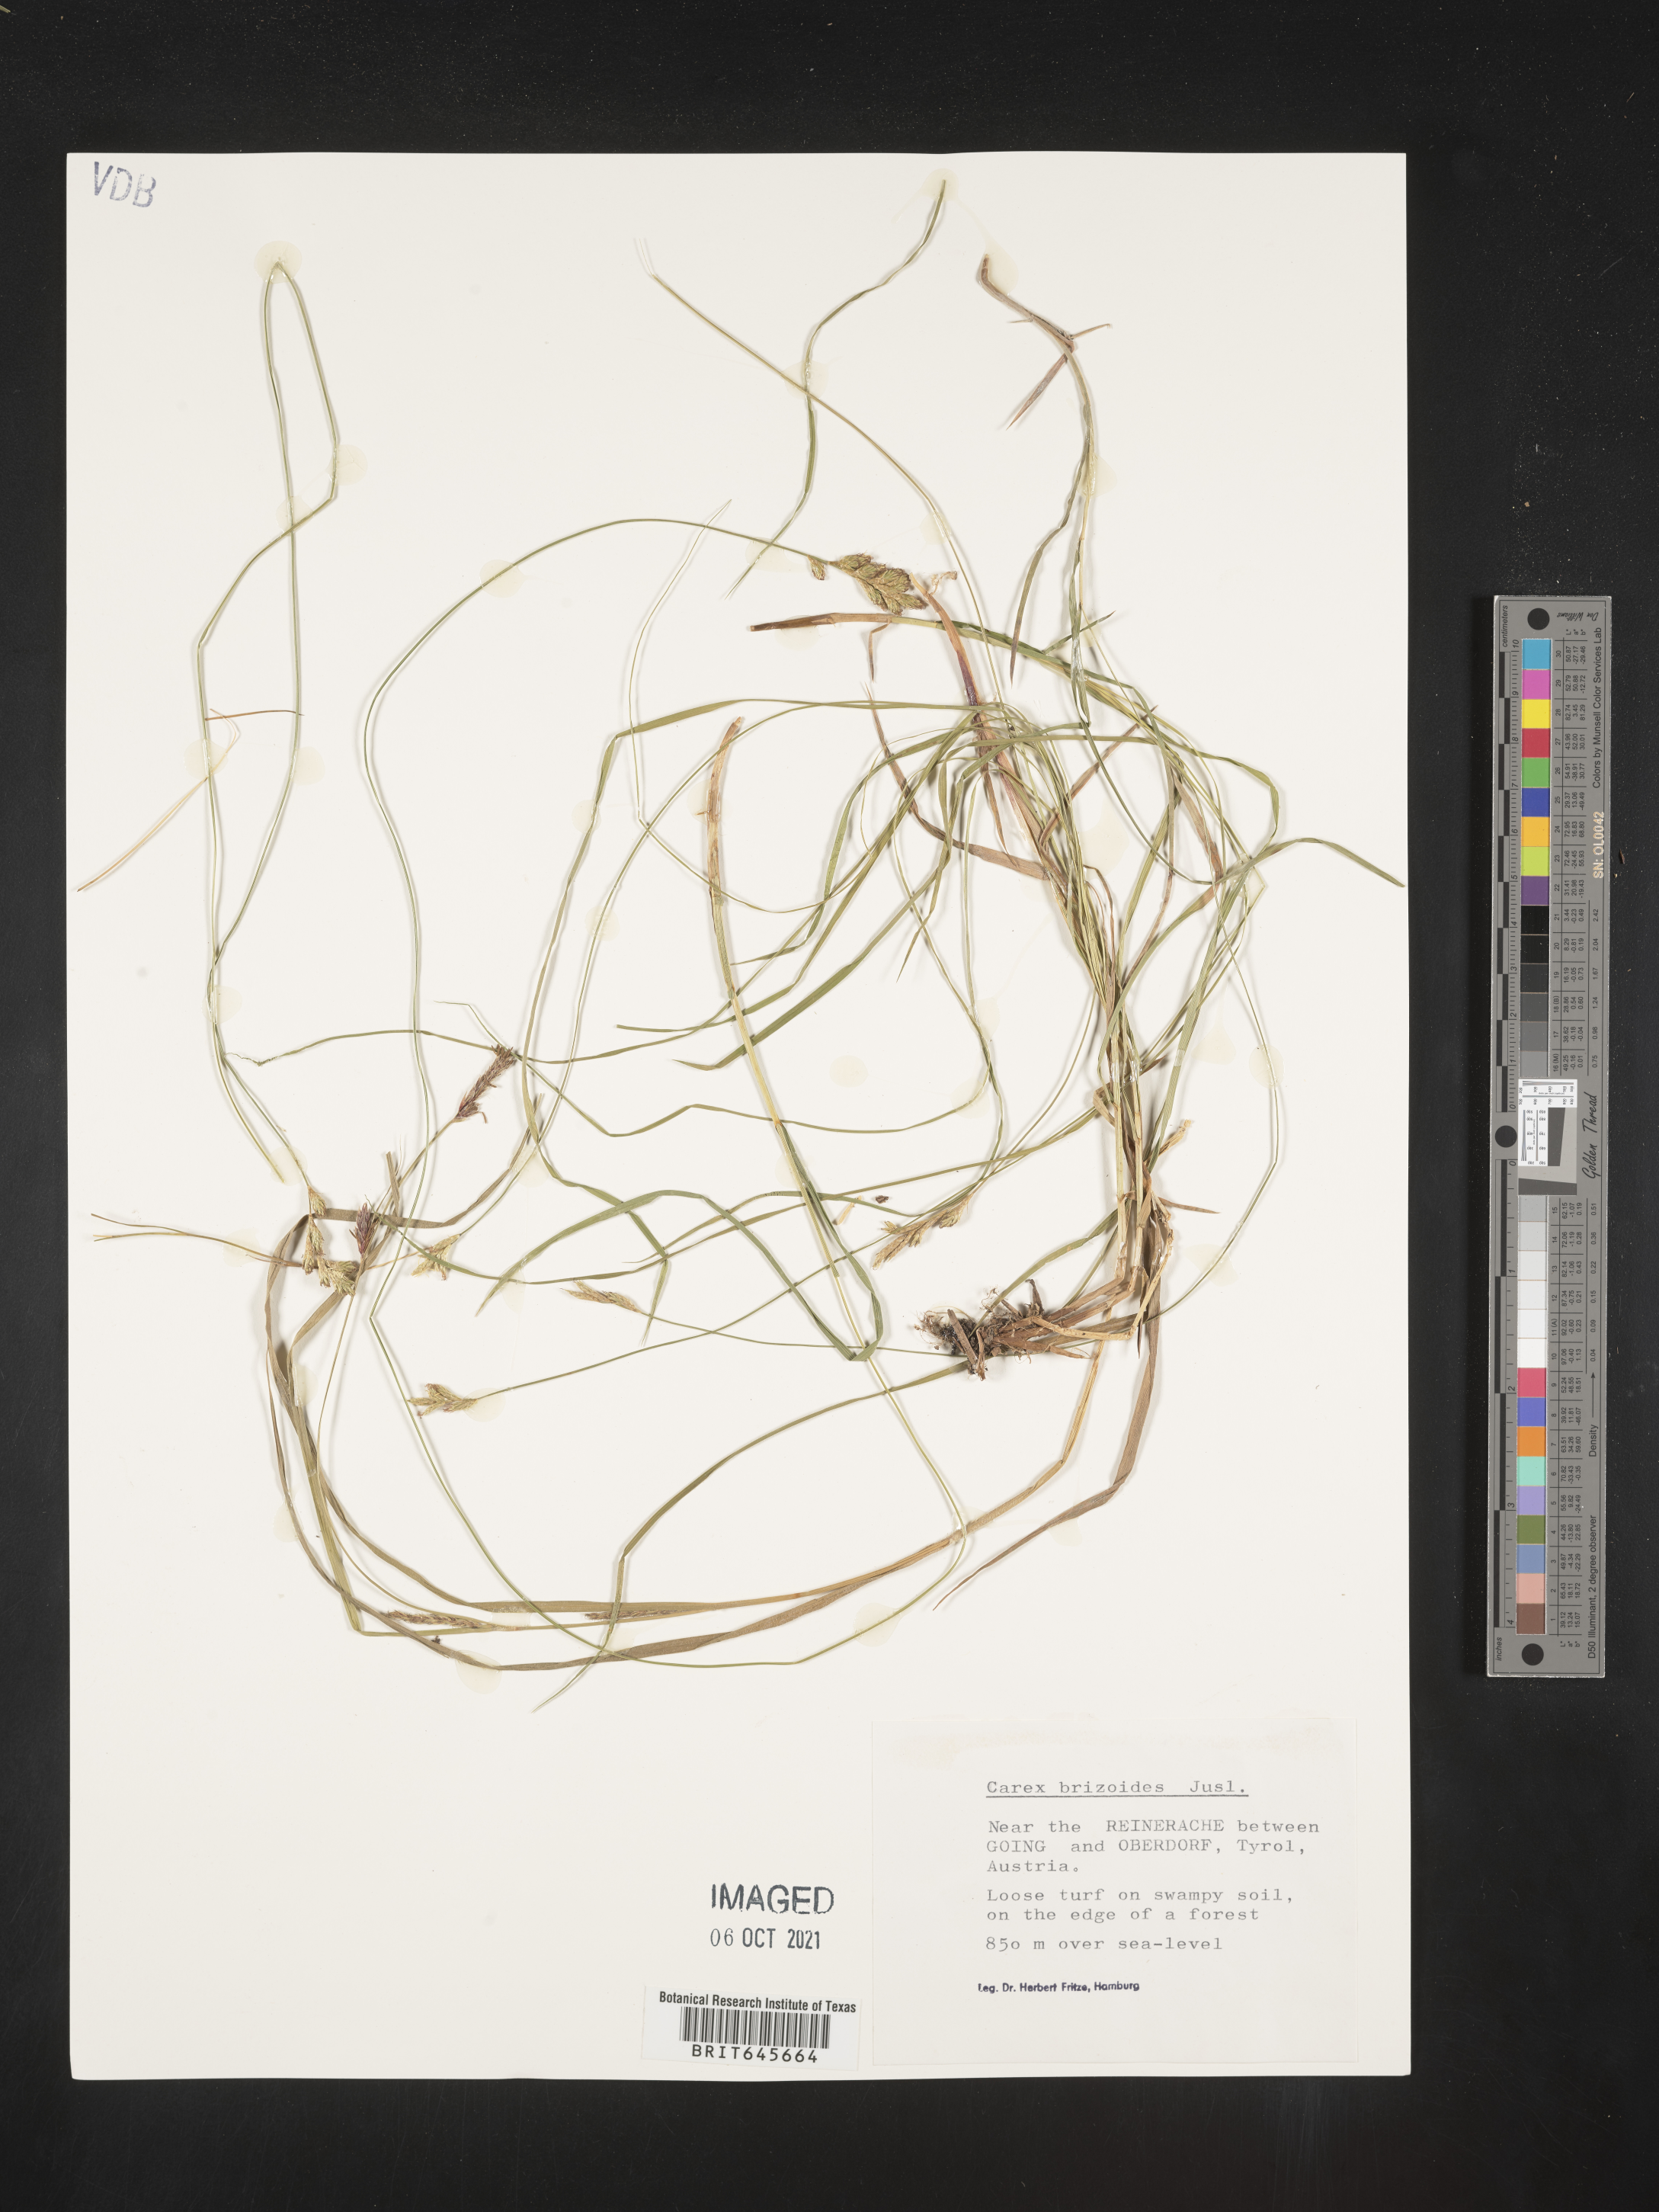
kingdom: Plantae
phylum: Tracheophyta
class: Liliopsida
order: Poales
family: Cyperaceae
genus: Carex
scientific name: Carex brizoides
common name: Quaking-grass sedge
